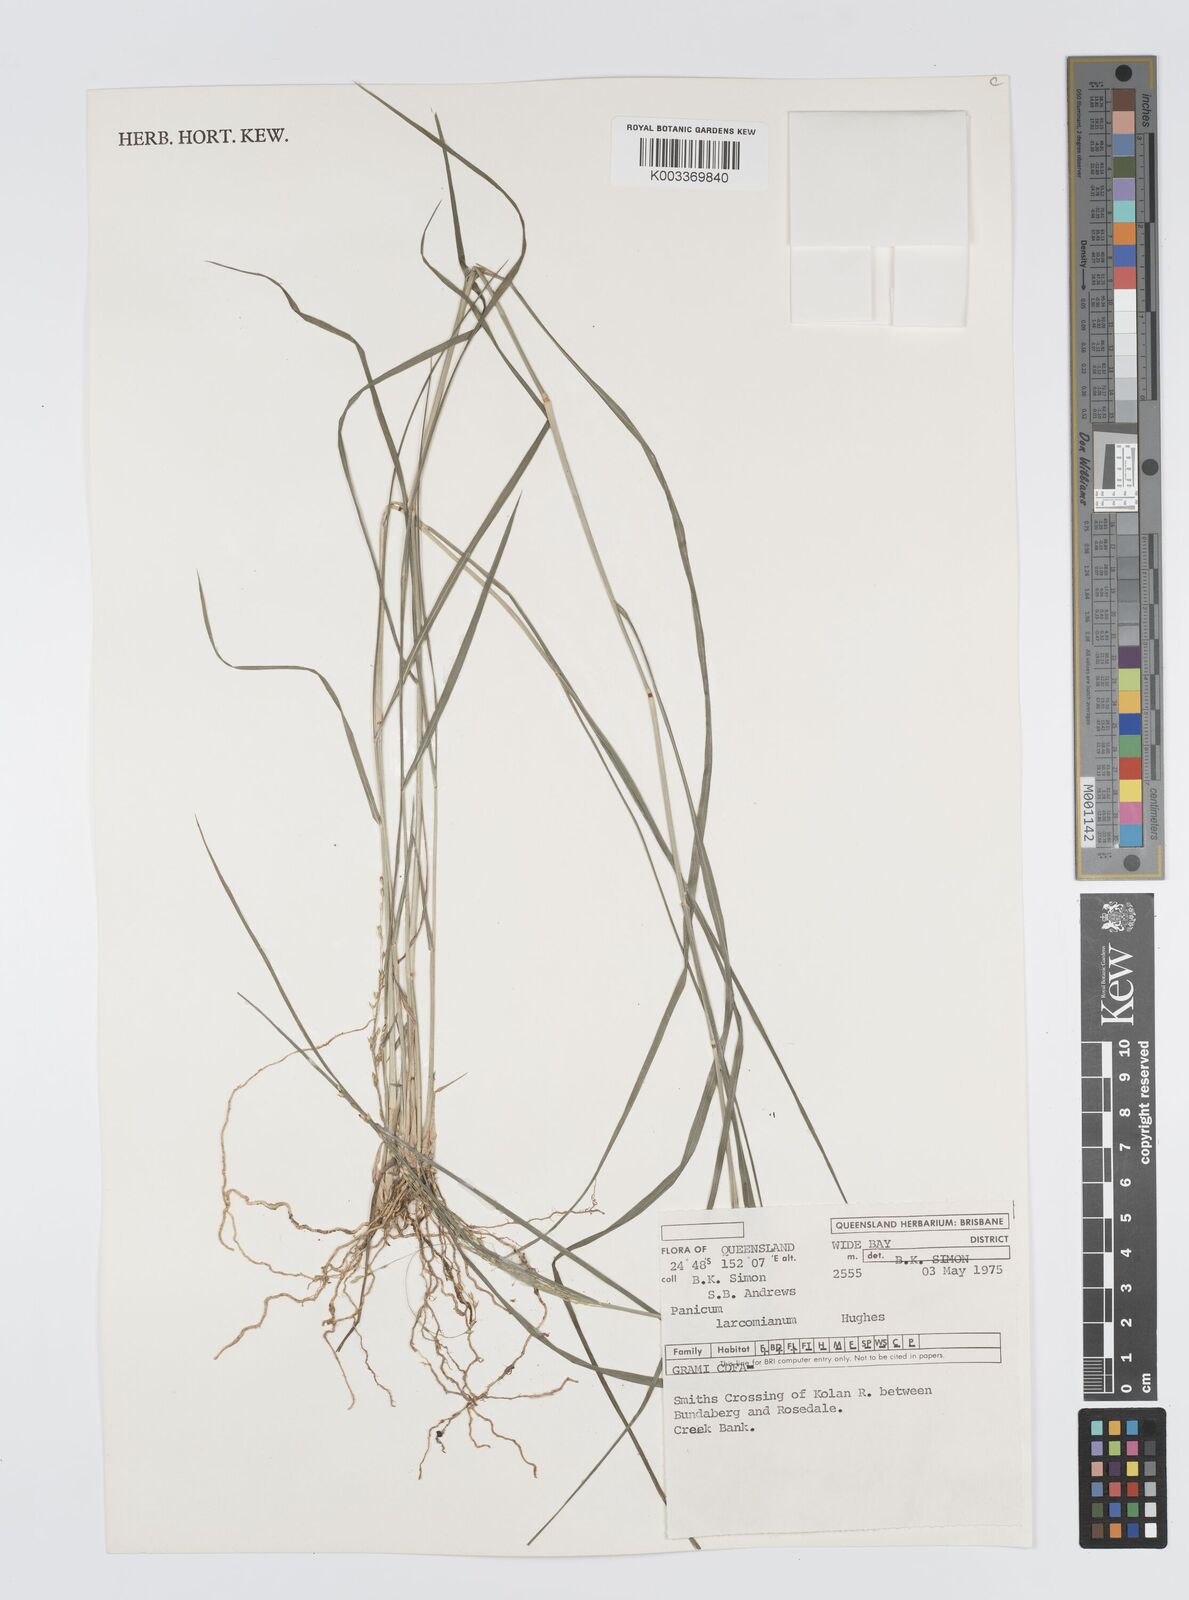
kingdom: Plantae
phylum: Tracheophyta
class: Liliopsida
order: Poales
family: Poaceae
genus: Panicum
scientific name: Panicum larcomianum
